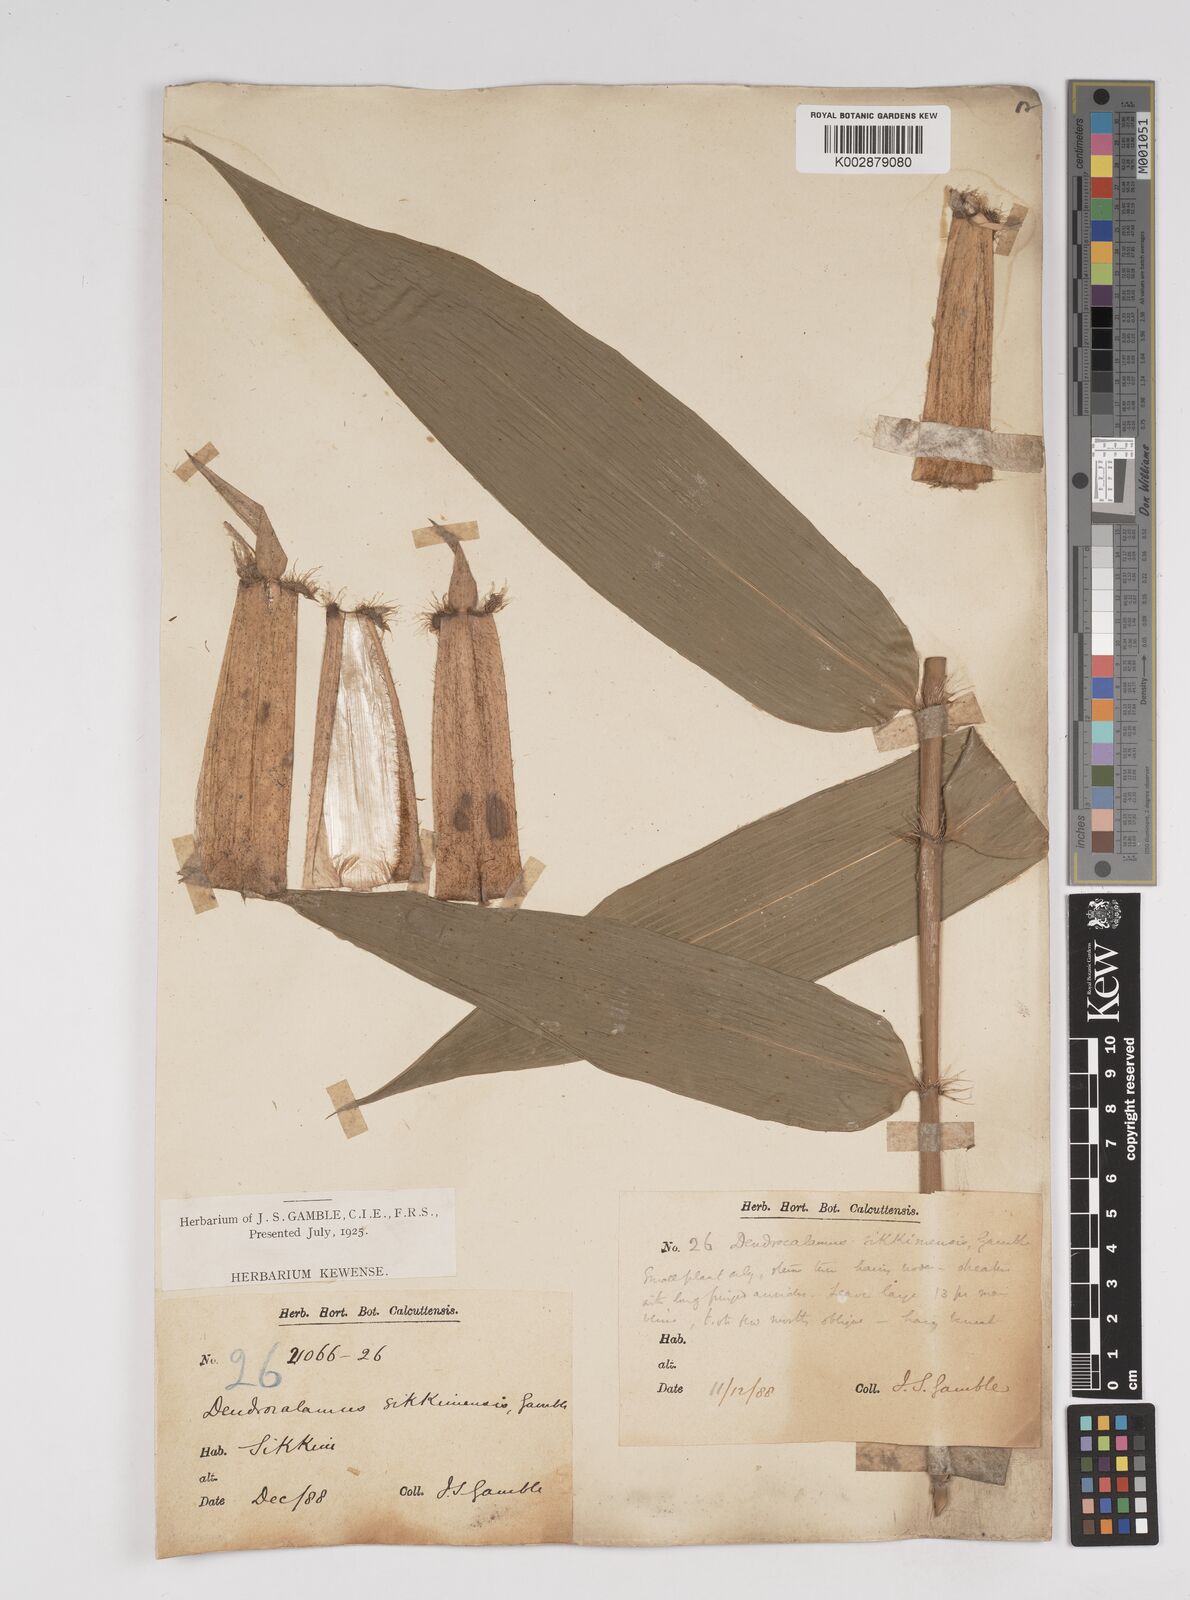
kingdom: Plantae
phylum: Tracheophyta
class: Liliopsida
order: Poales
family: Poaceae
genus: Dendrocalamus
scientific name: Dendrocalamus sikkimensis
